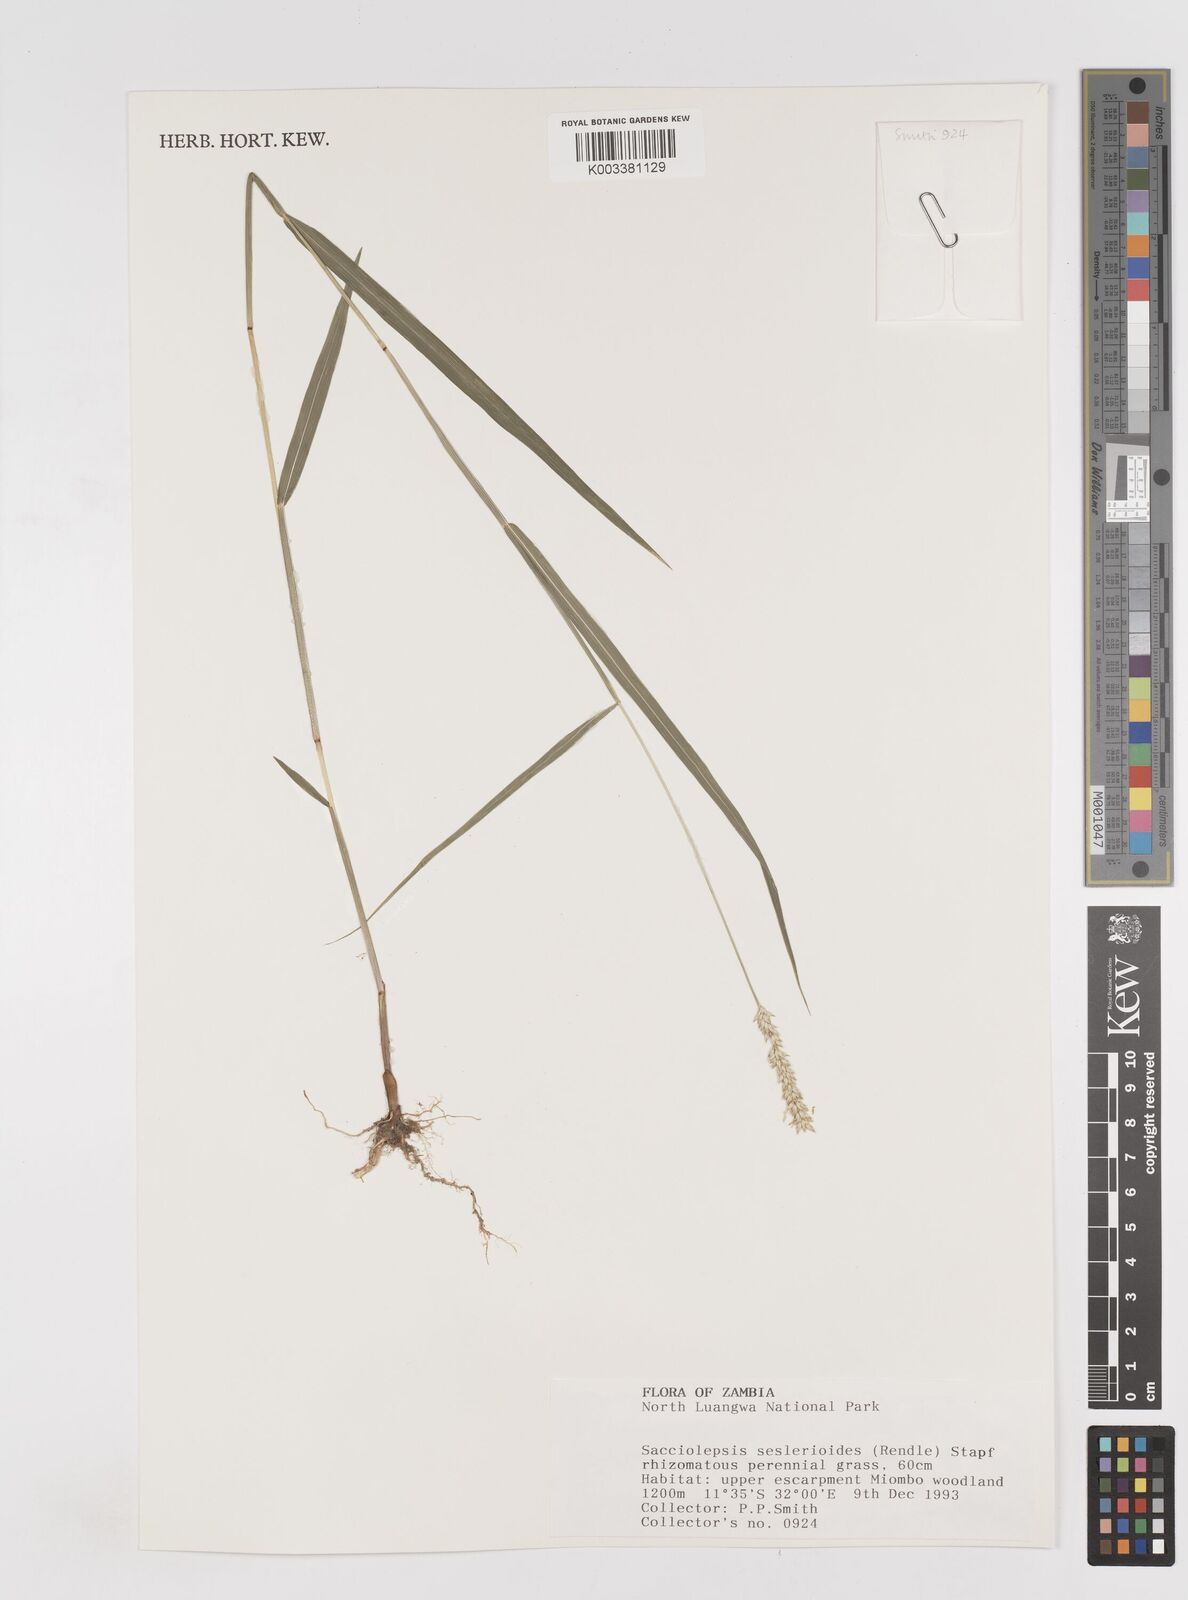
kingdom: Plantae
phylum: Tracheophyta
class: Liliopsida
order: Poales
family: Poaceae
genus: Sacciolepis
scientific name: Sacciolepis seslerioides
